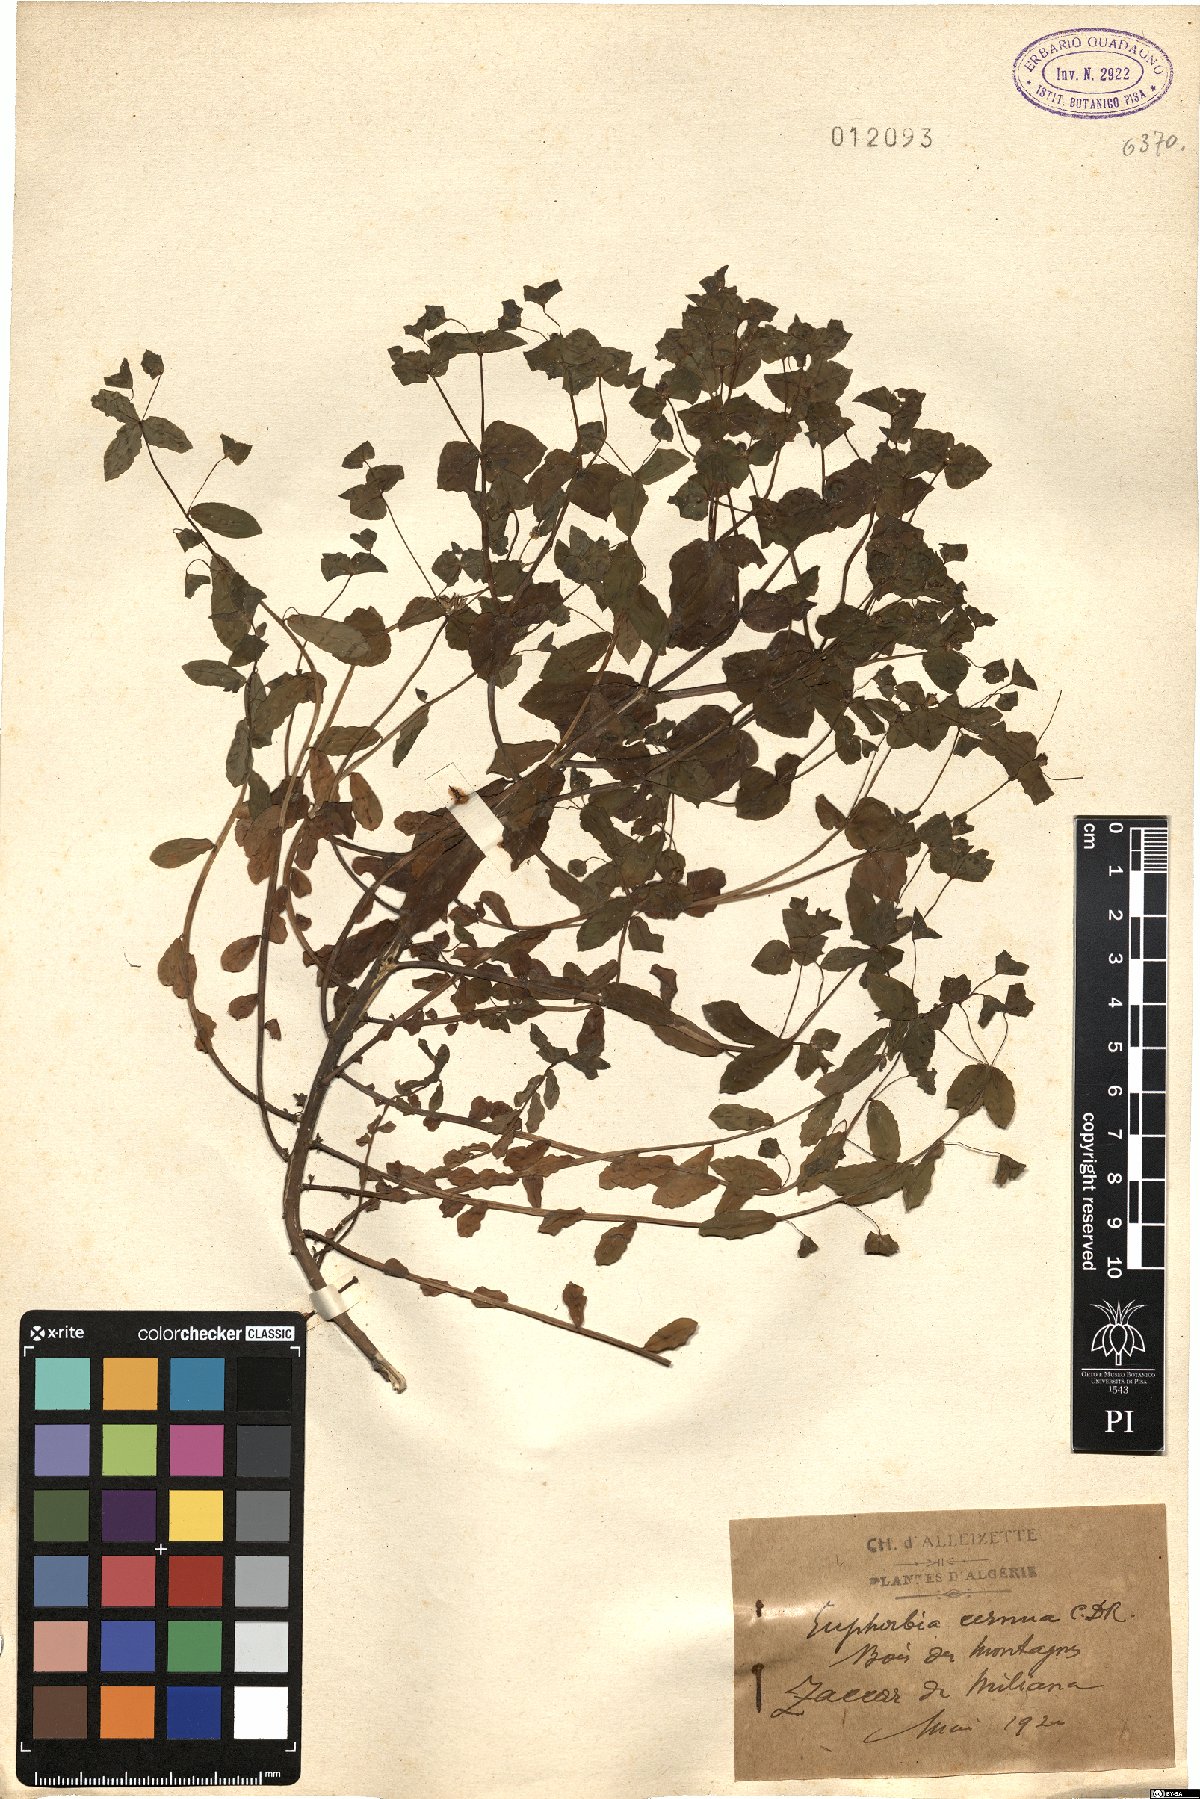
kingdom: Plantae
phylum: Tracheophyta
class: Magnoliopsida
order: Malpighiales
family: Euphorbiaceae
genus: Euphorbia
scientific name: Euphorbia phymatosperma
